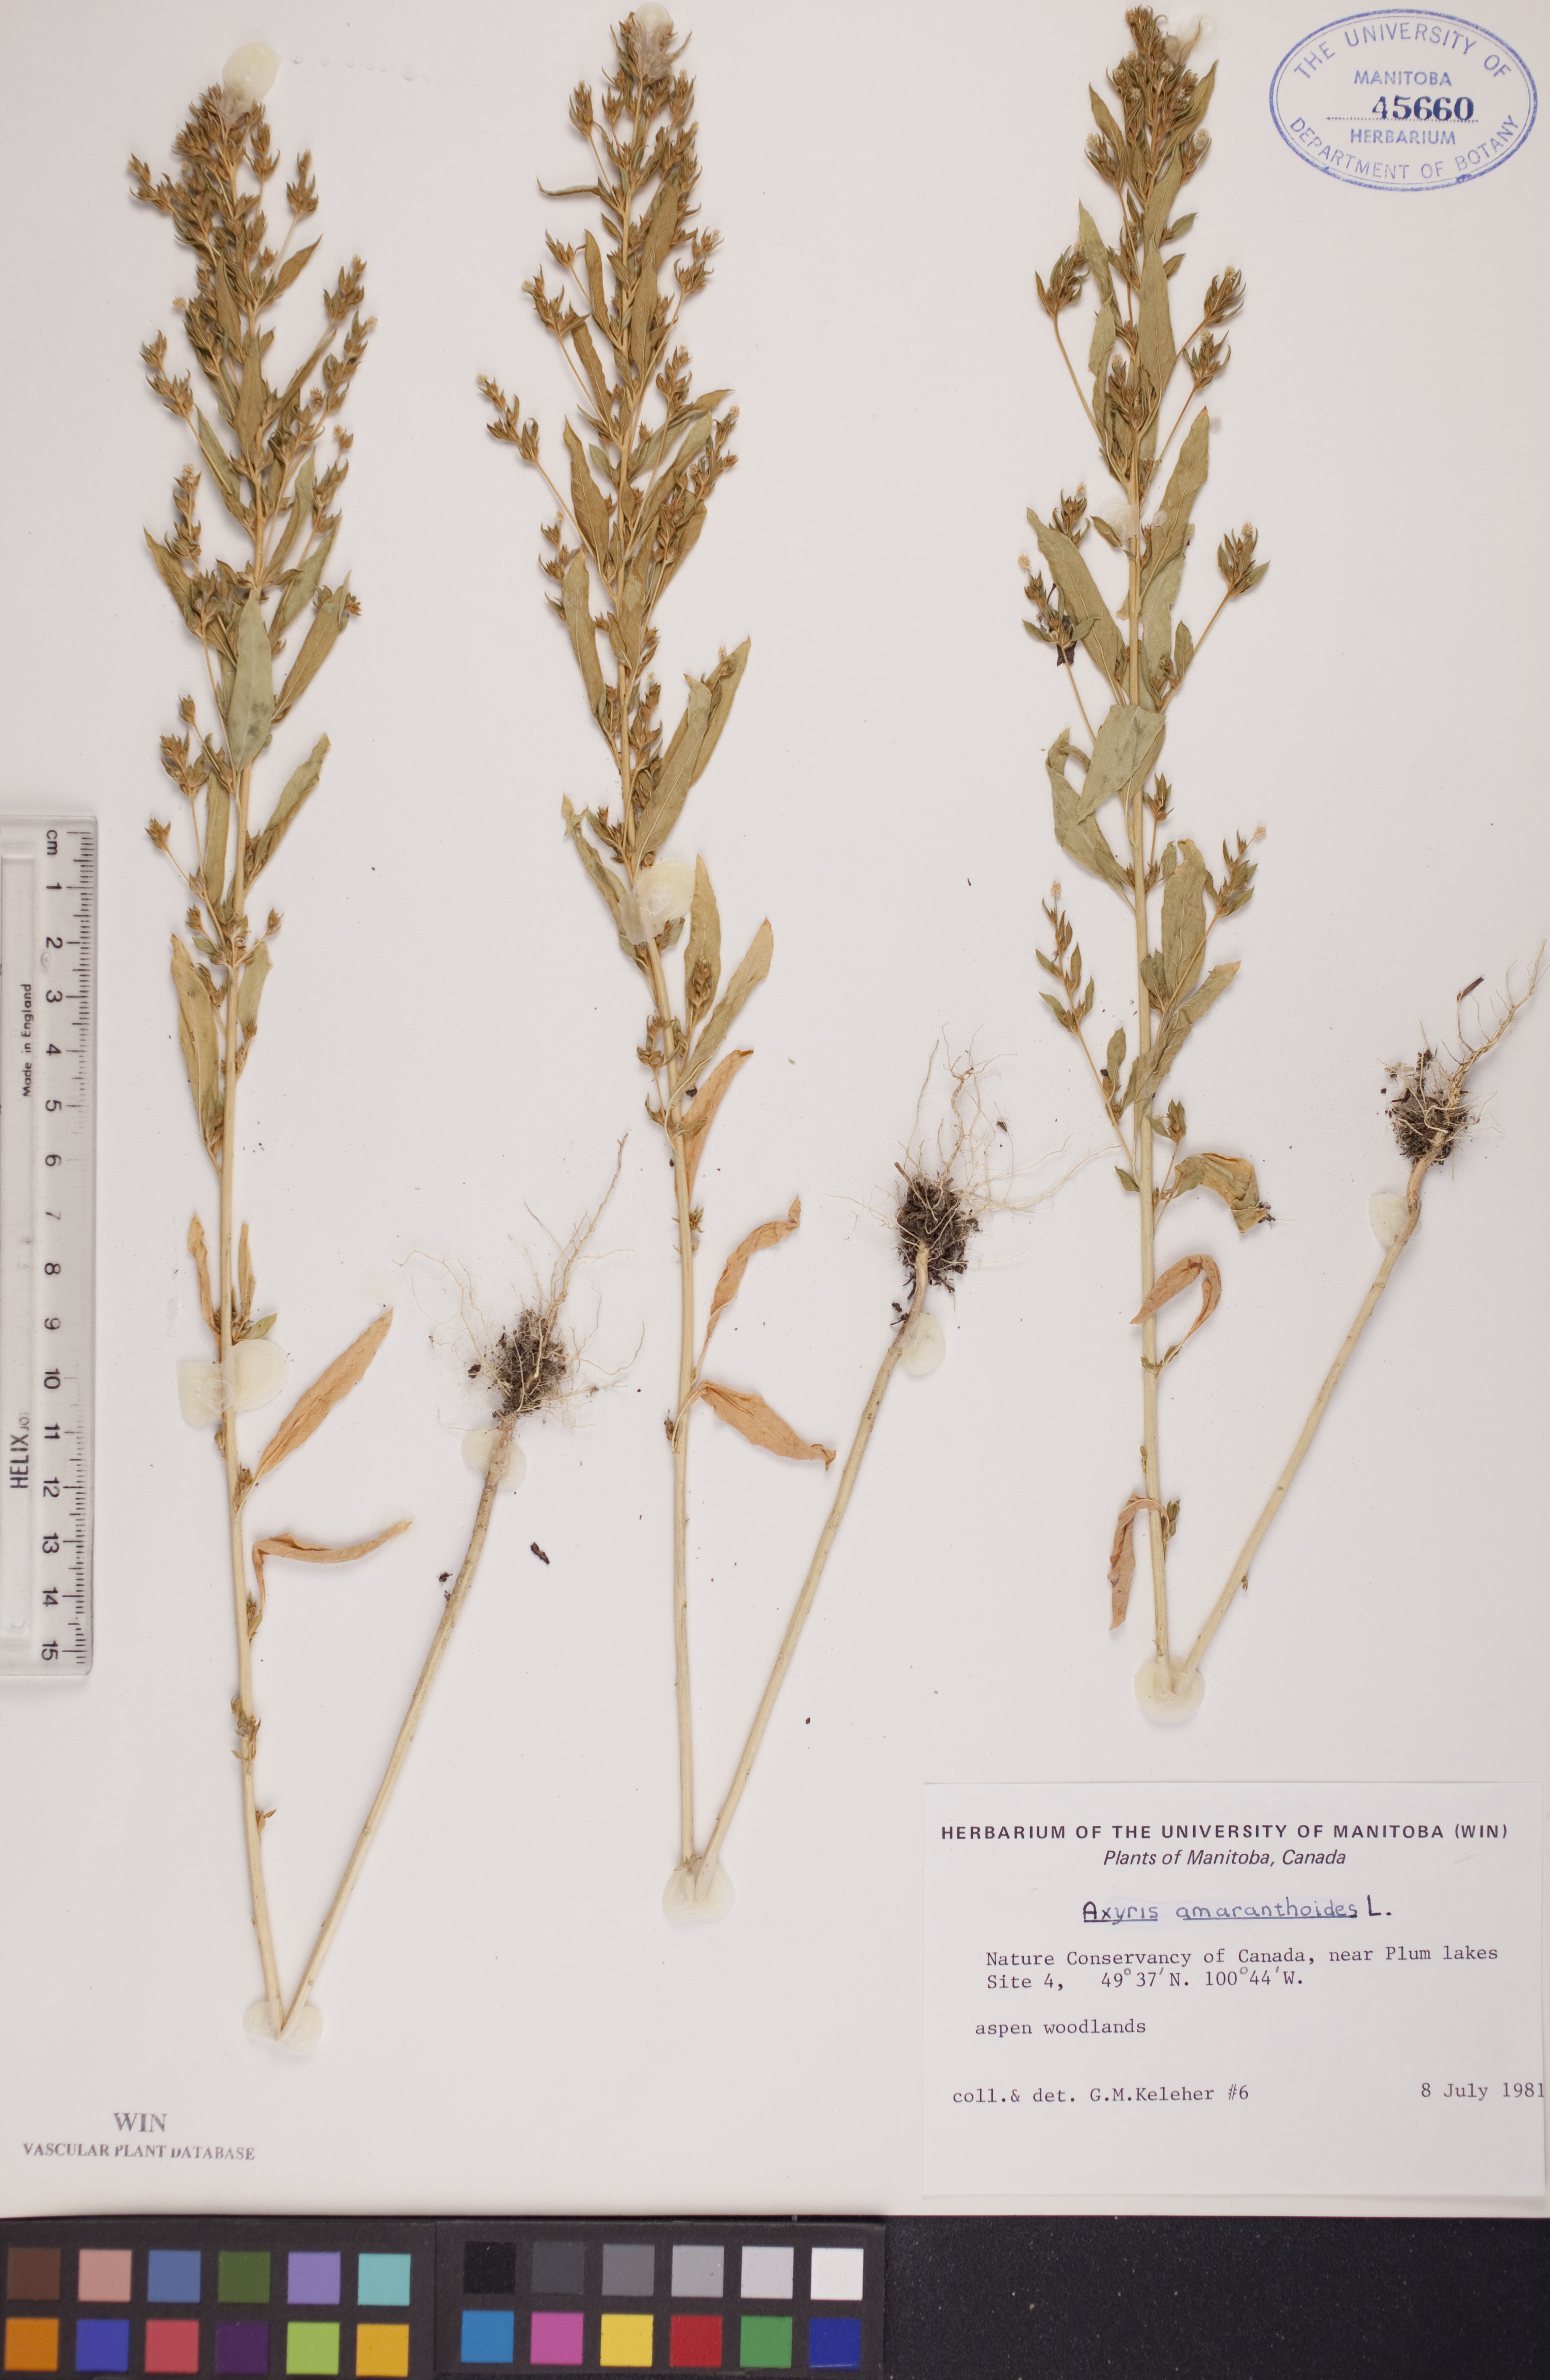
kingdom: Plantae
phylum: Tracheophyta
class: Magnoliopsida
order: Caryophyllales
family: Amaranthaceae
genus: Axyris
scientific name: Axyris amaranthoides
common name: Russian pigweed
